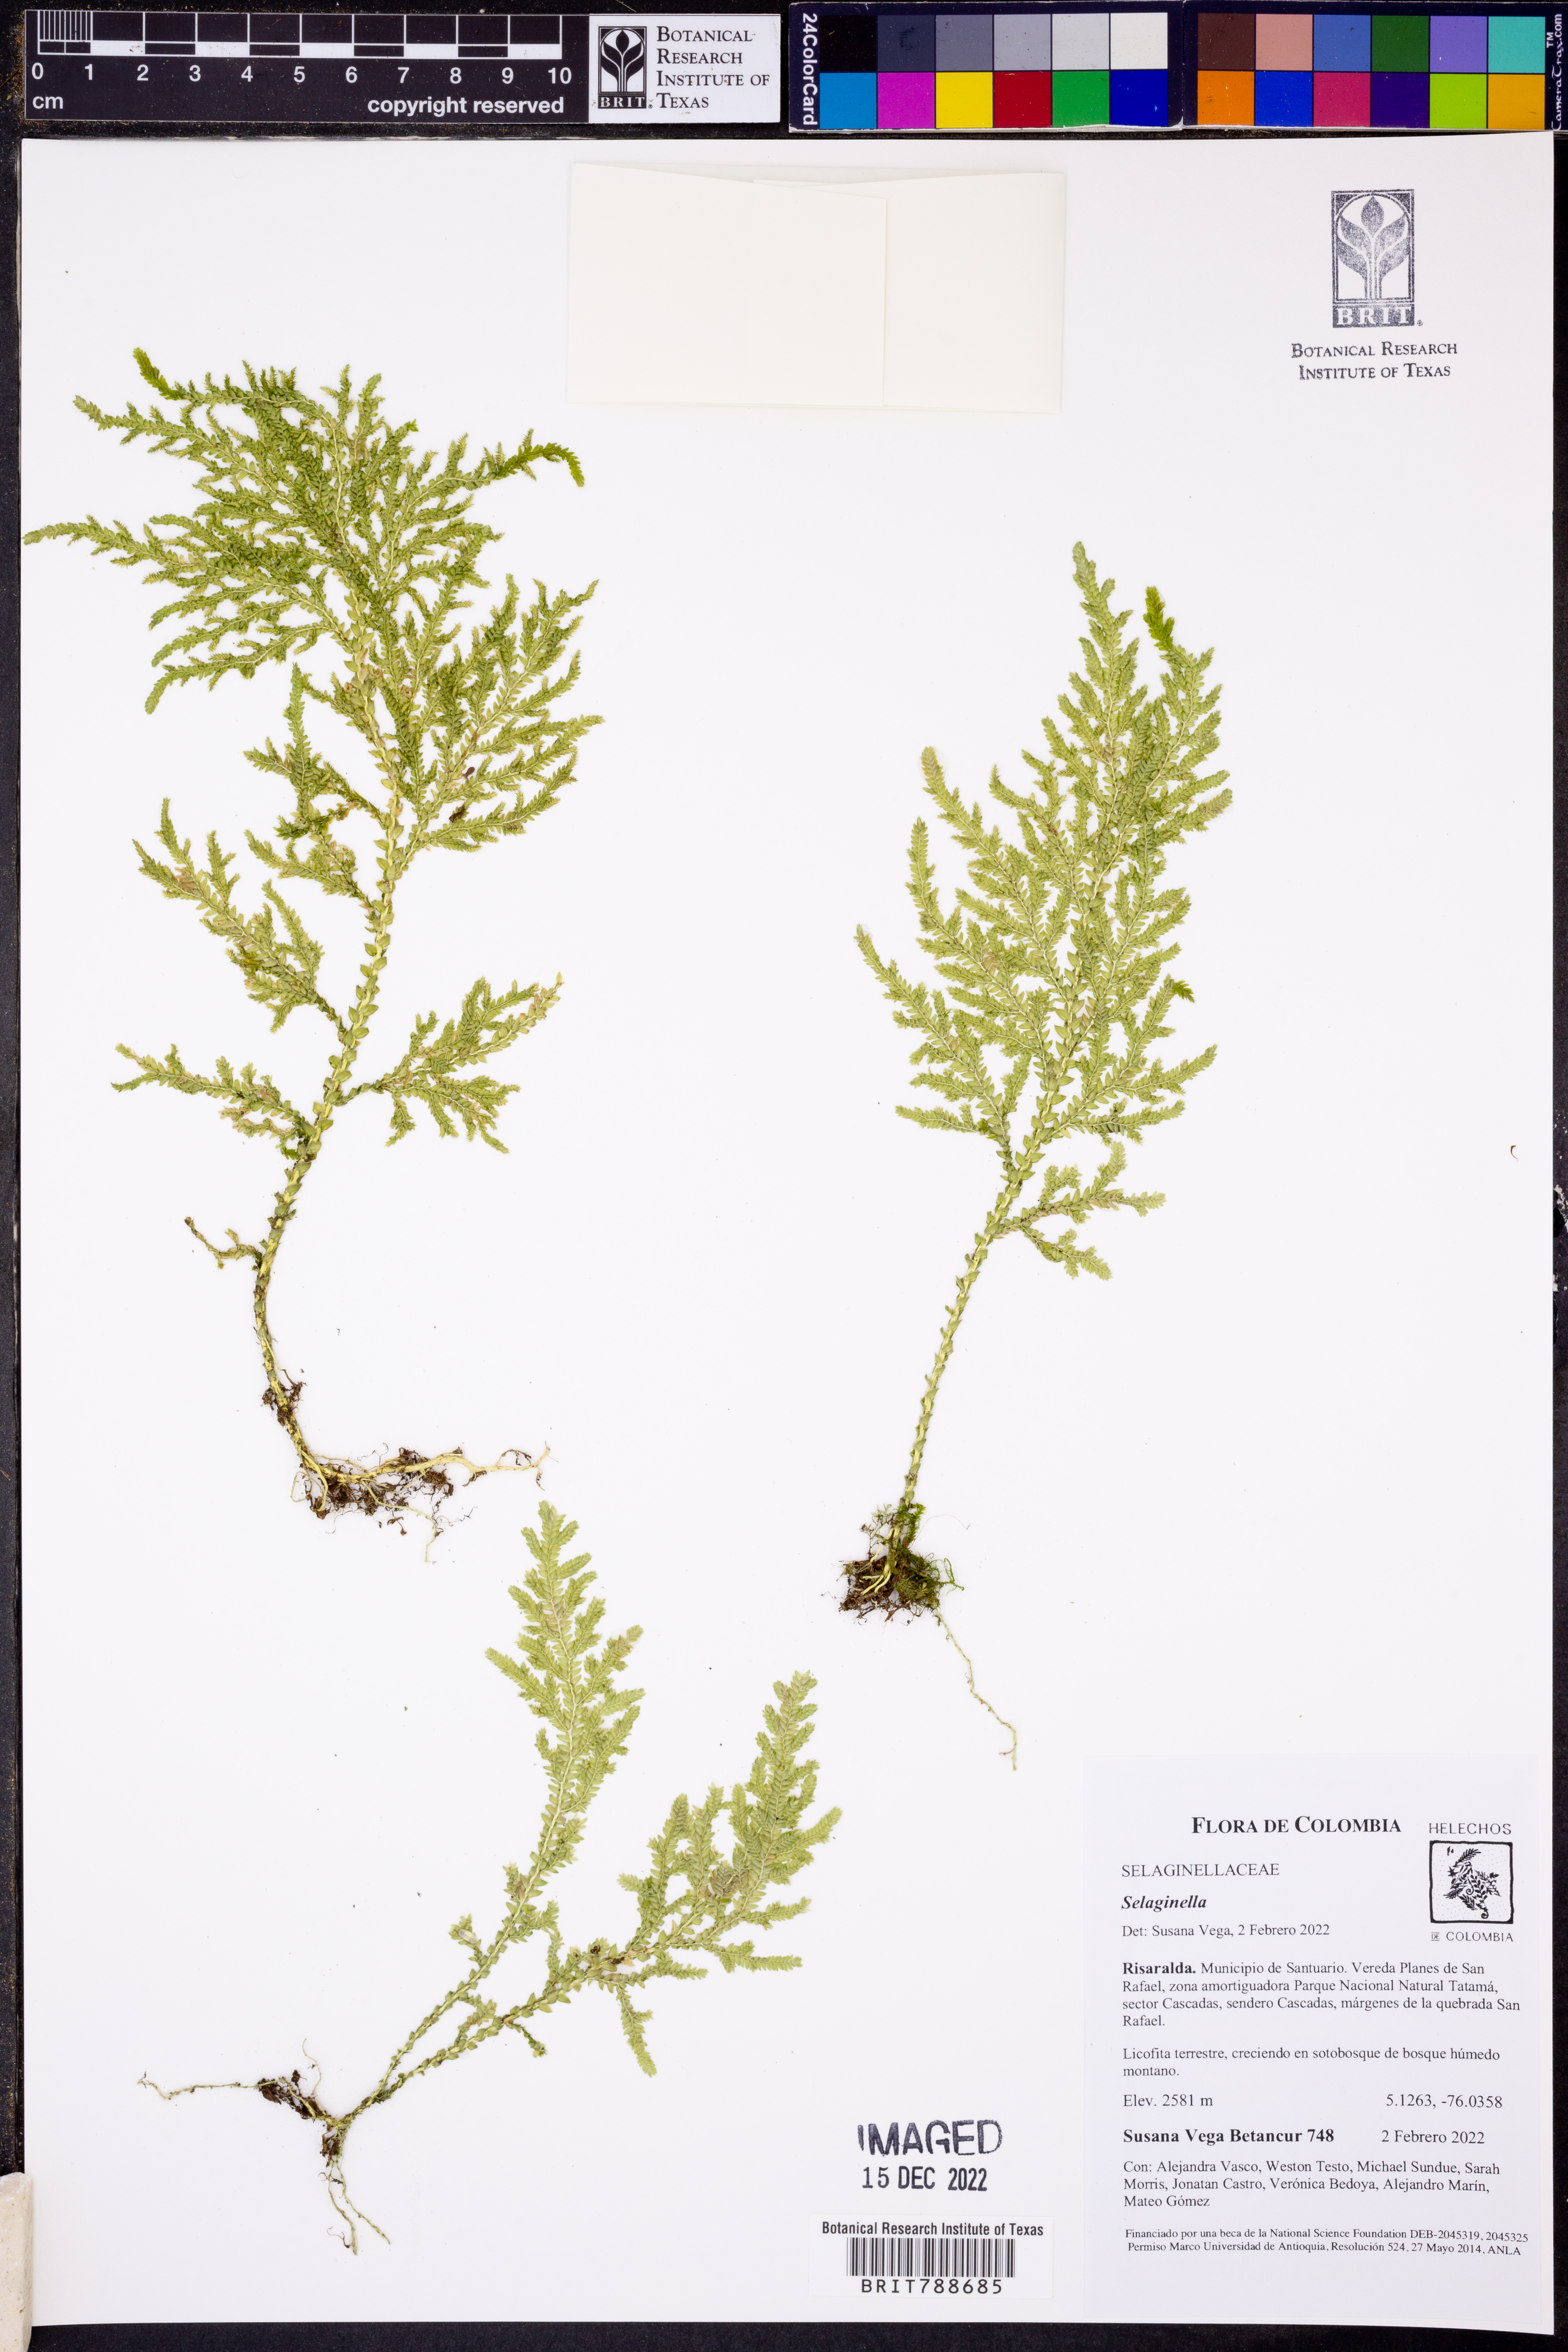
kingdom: Plantae
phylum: Tracheophyta
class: Lycopodiopsida
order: Selaginellales
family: Selaginellaceae
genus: Selaginella
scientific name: Selaginella
